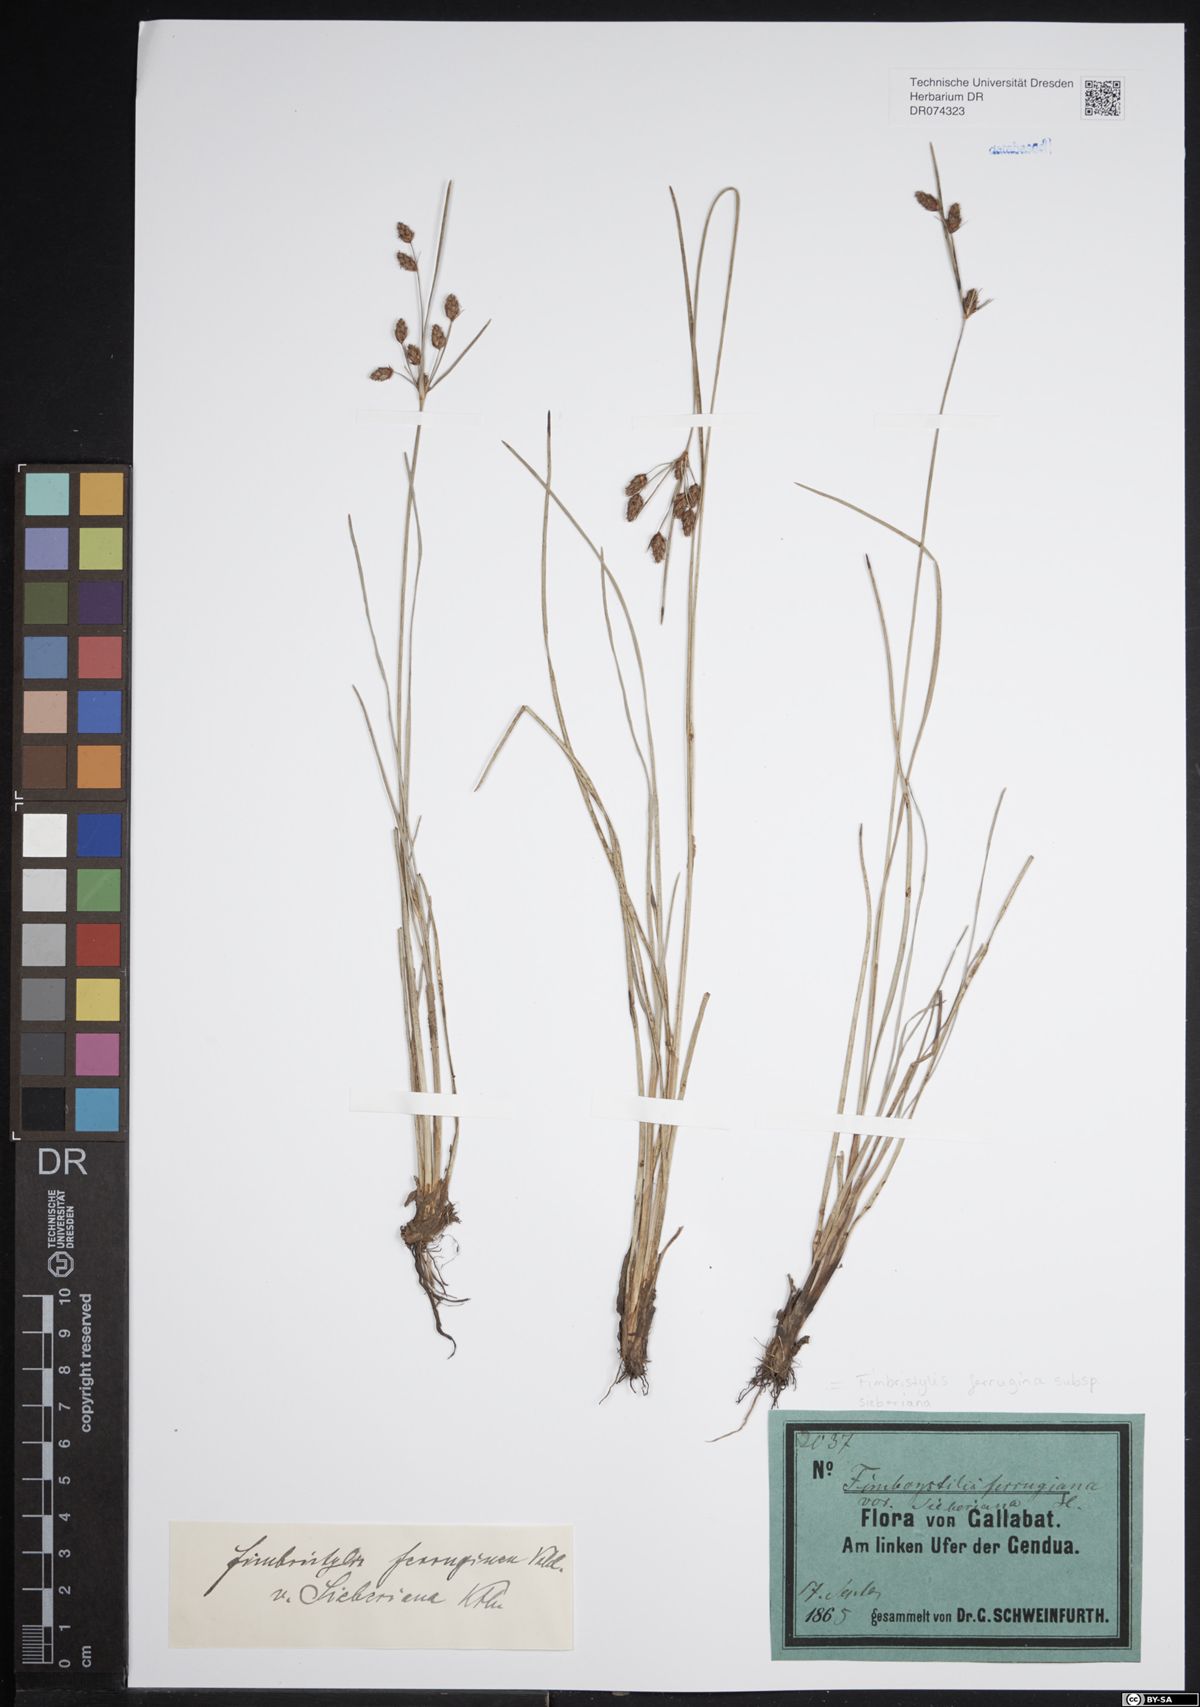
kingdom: Plantae
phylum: Tracheophyta
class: Liliopsida
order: Poales
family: Cyperaceae
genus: Fimbristylis
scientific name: Fimbristylis ferruginea
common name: West indian fimbry
